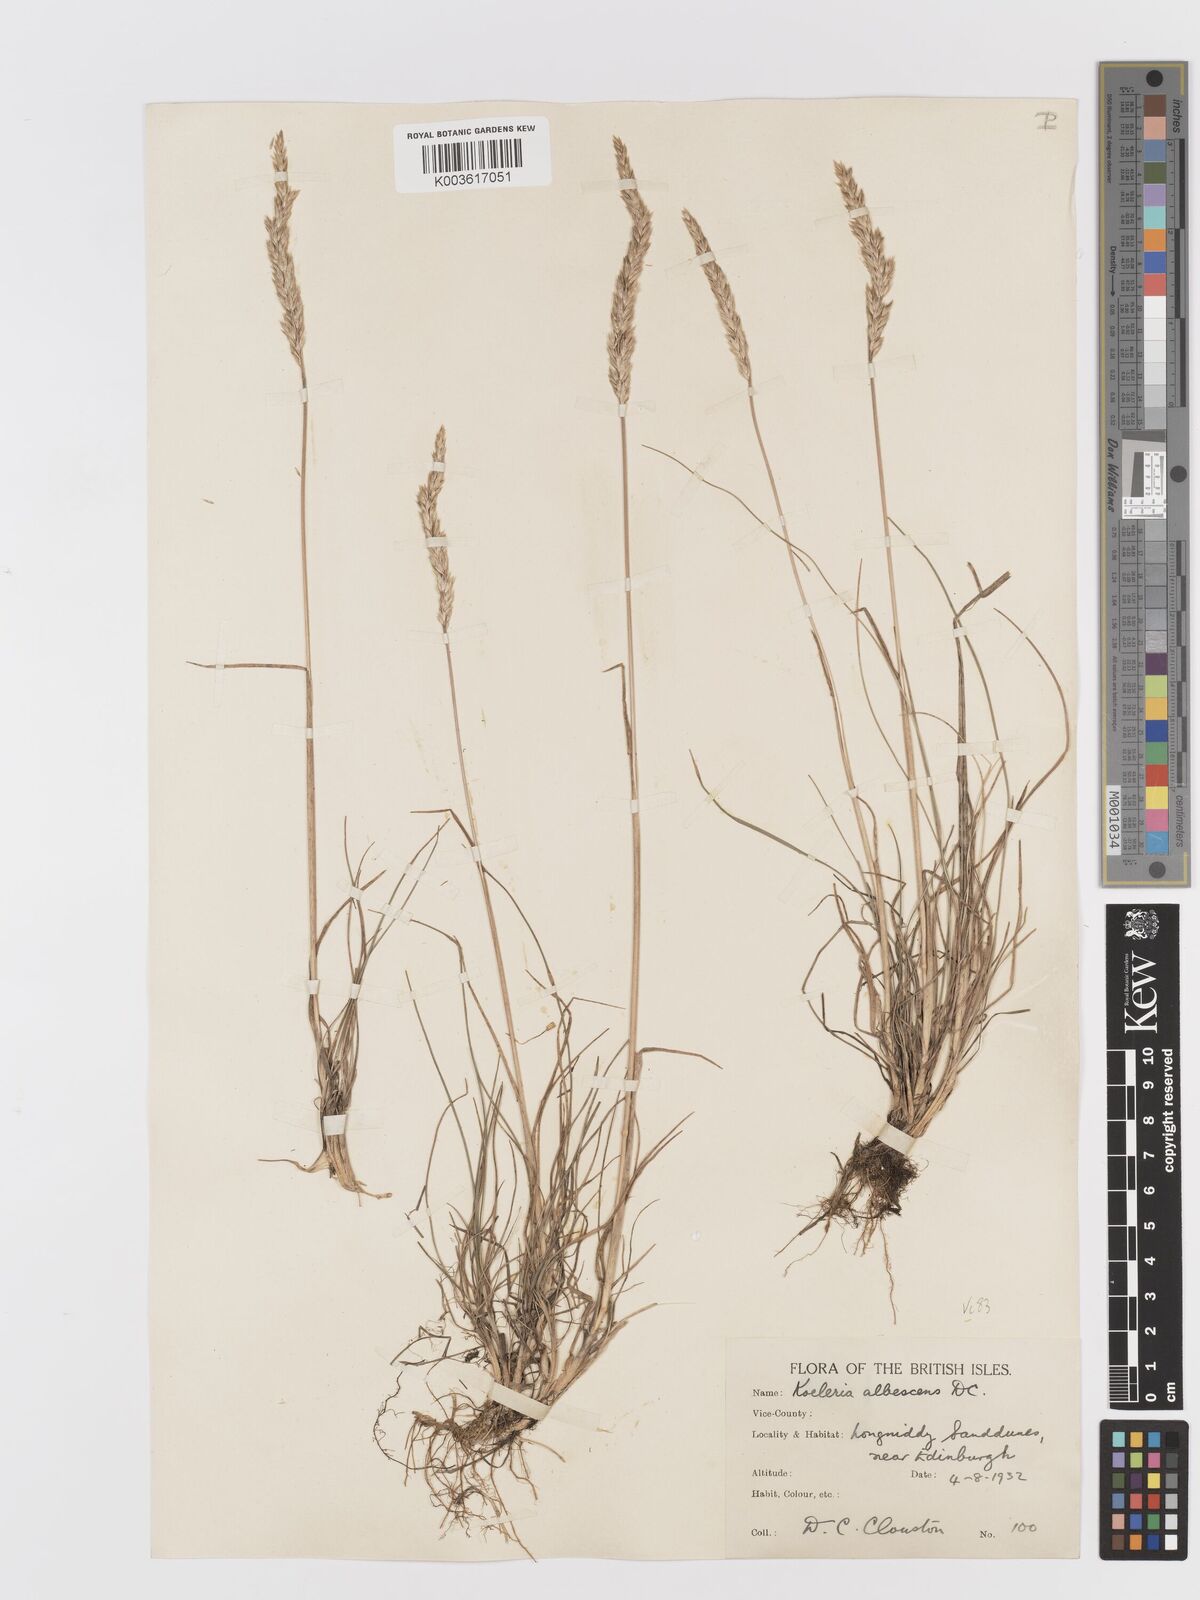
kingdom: Plantae
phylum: Tracheophyta
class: Liliopsida
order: Poales
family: Poaceae
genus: Koeleria
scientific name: Koeleria macrantha
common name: Crested hair-grass
